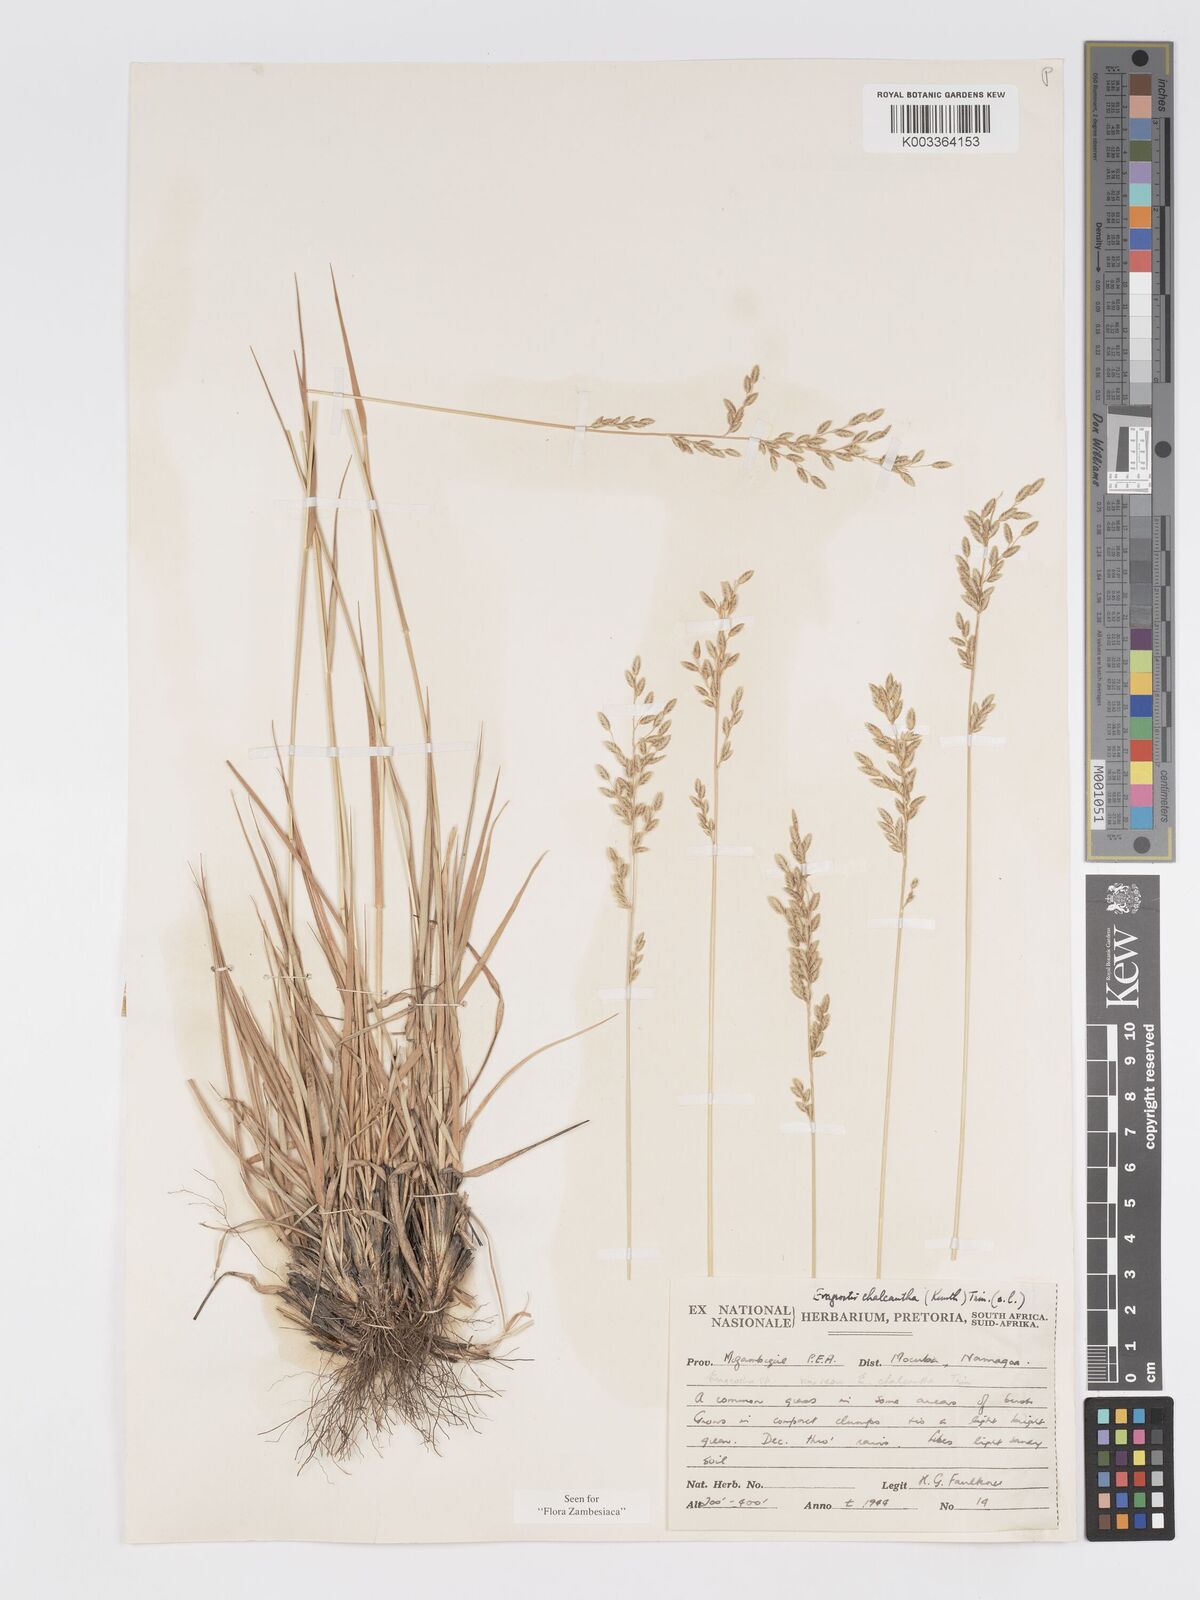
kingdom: Plantae
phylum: Tracheophyta
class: Liliopsida
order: Poales
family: Poaceae
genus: Eragrostis
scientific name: Eragrostis racemosa
